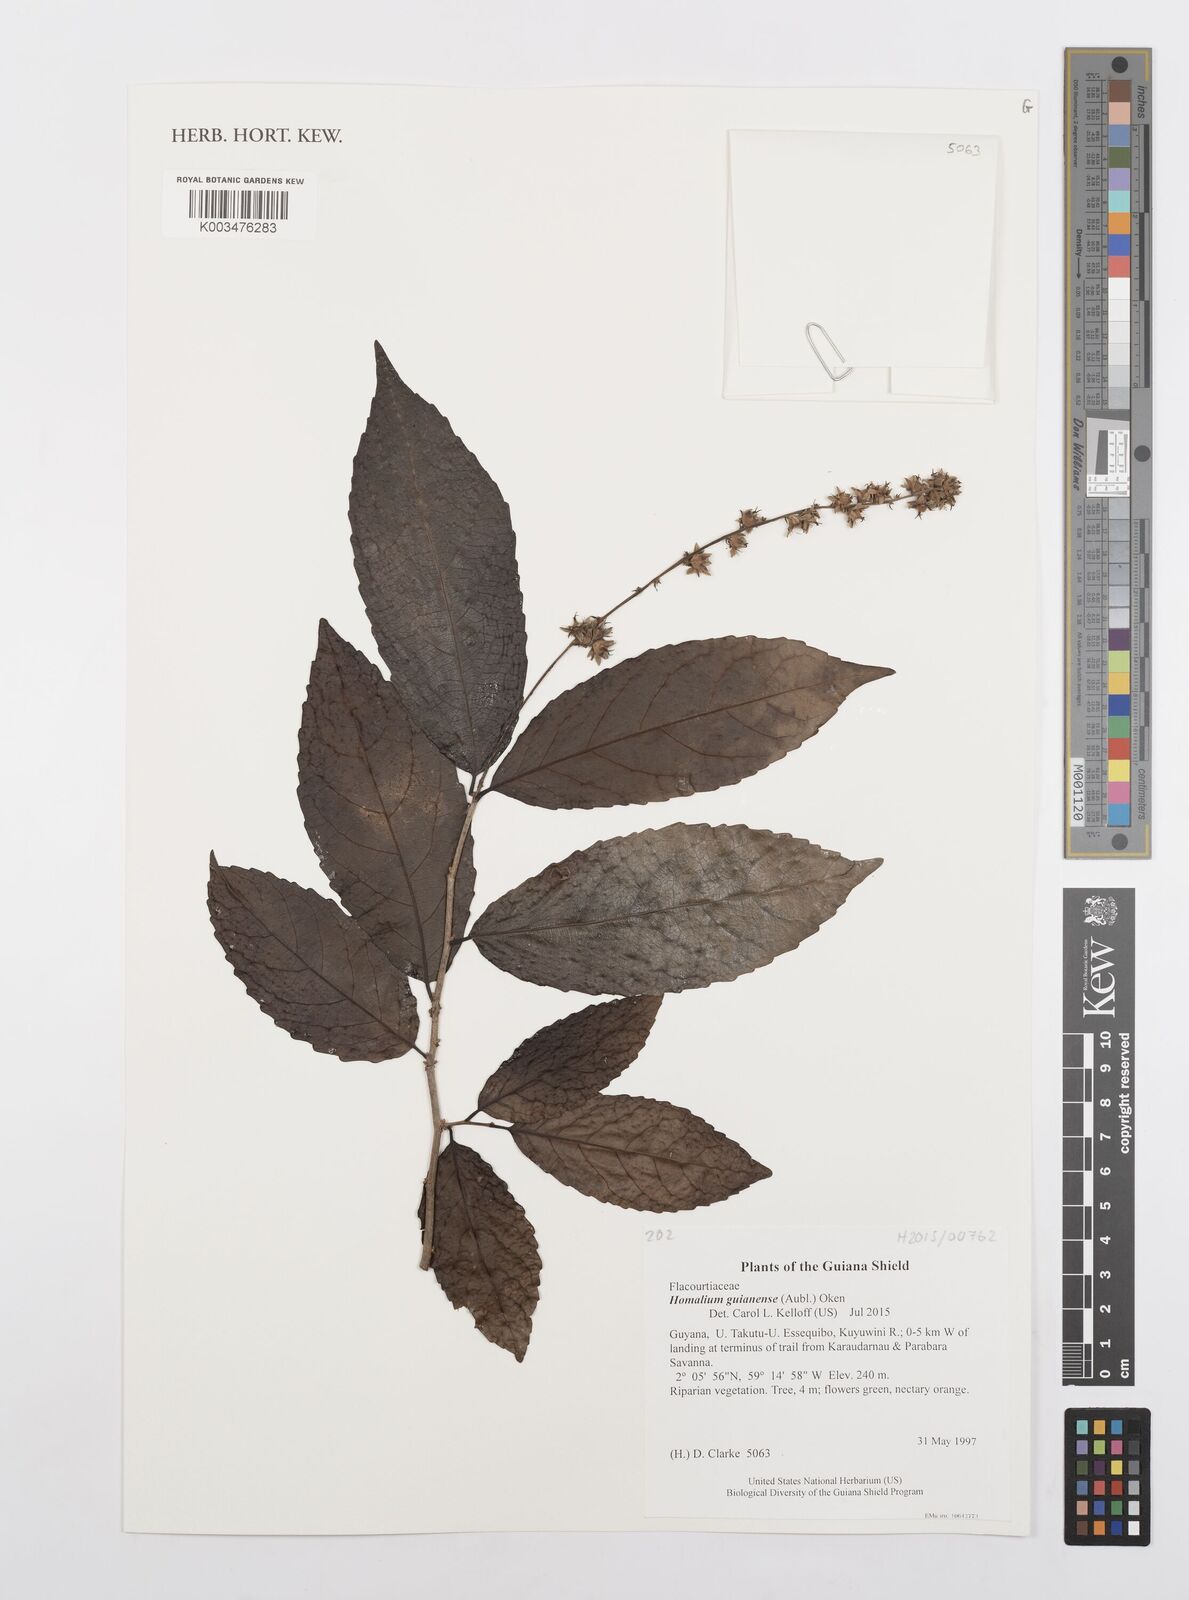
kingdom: Plantae
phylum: Tracheophyta
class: Magnoliopsida
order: Malpighiales
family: Salicaceae
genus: Homalium
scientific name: Homalium guianense
